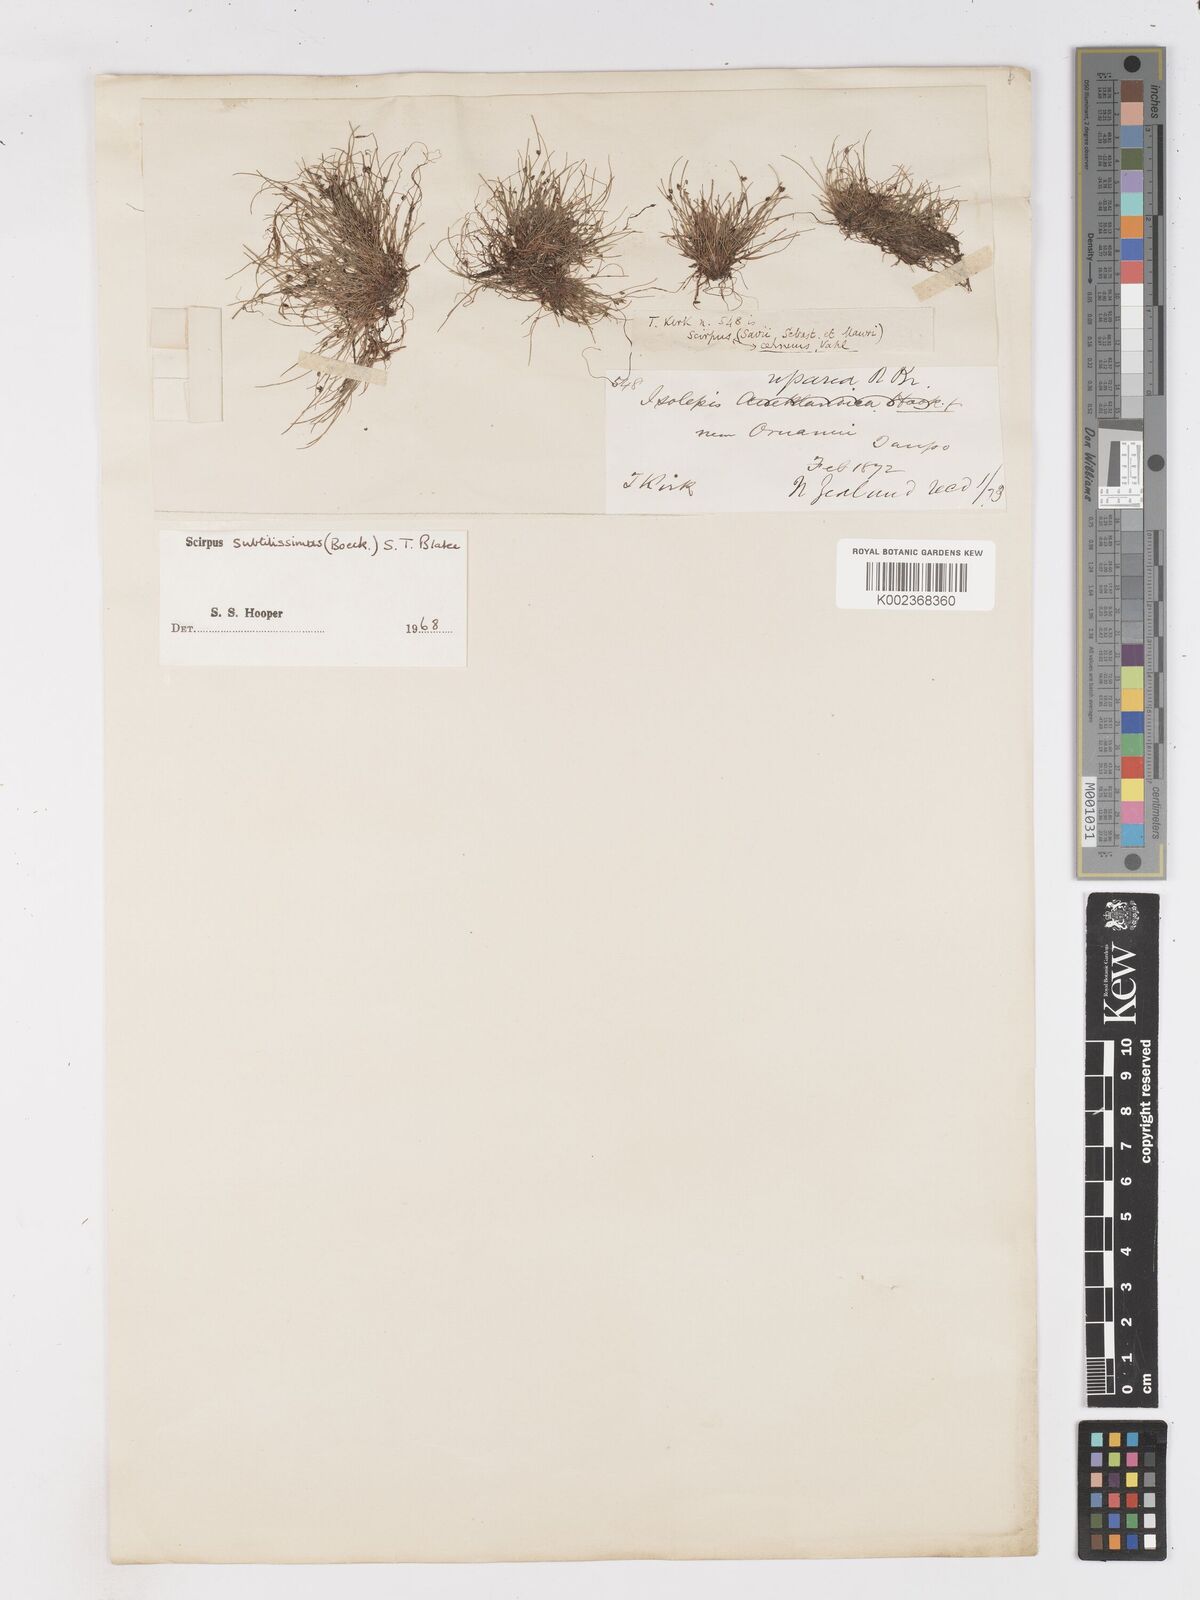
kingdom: Plantae
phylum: Tracheophyta
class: Liliopsida
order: Poales
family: Cyperaceae
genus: Isolepis
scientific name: Isolepis subtilissima
